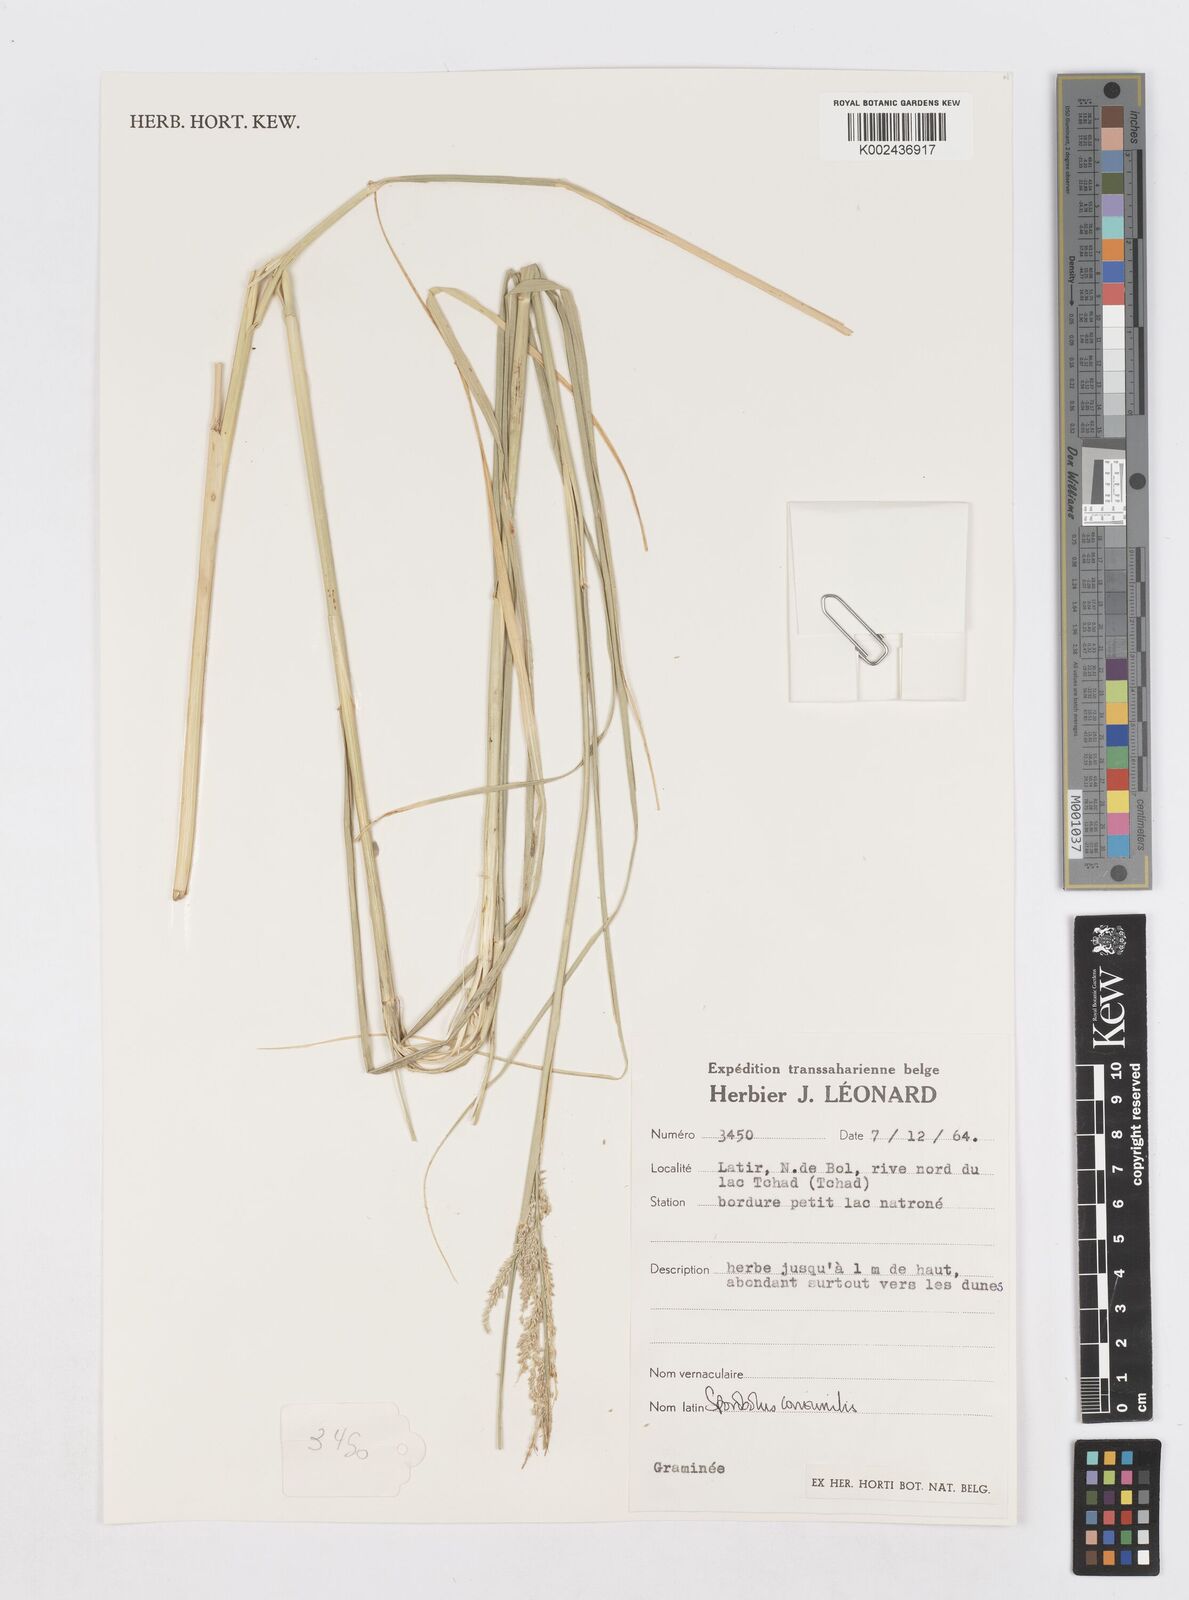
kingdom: Plantae
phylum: Tracheophyta
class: Liliopsida
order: Poales
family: Poaceae
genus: Sporobolus
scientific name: Sporobolus consimilis
